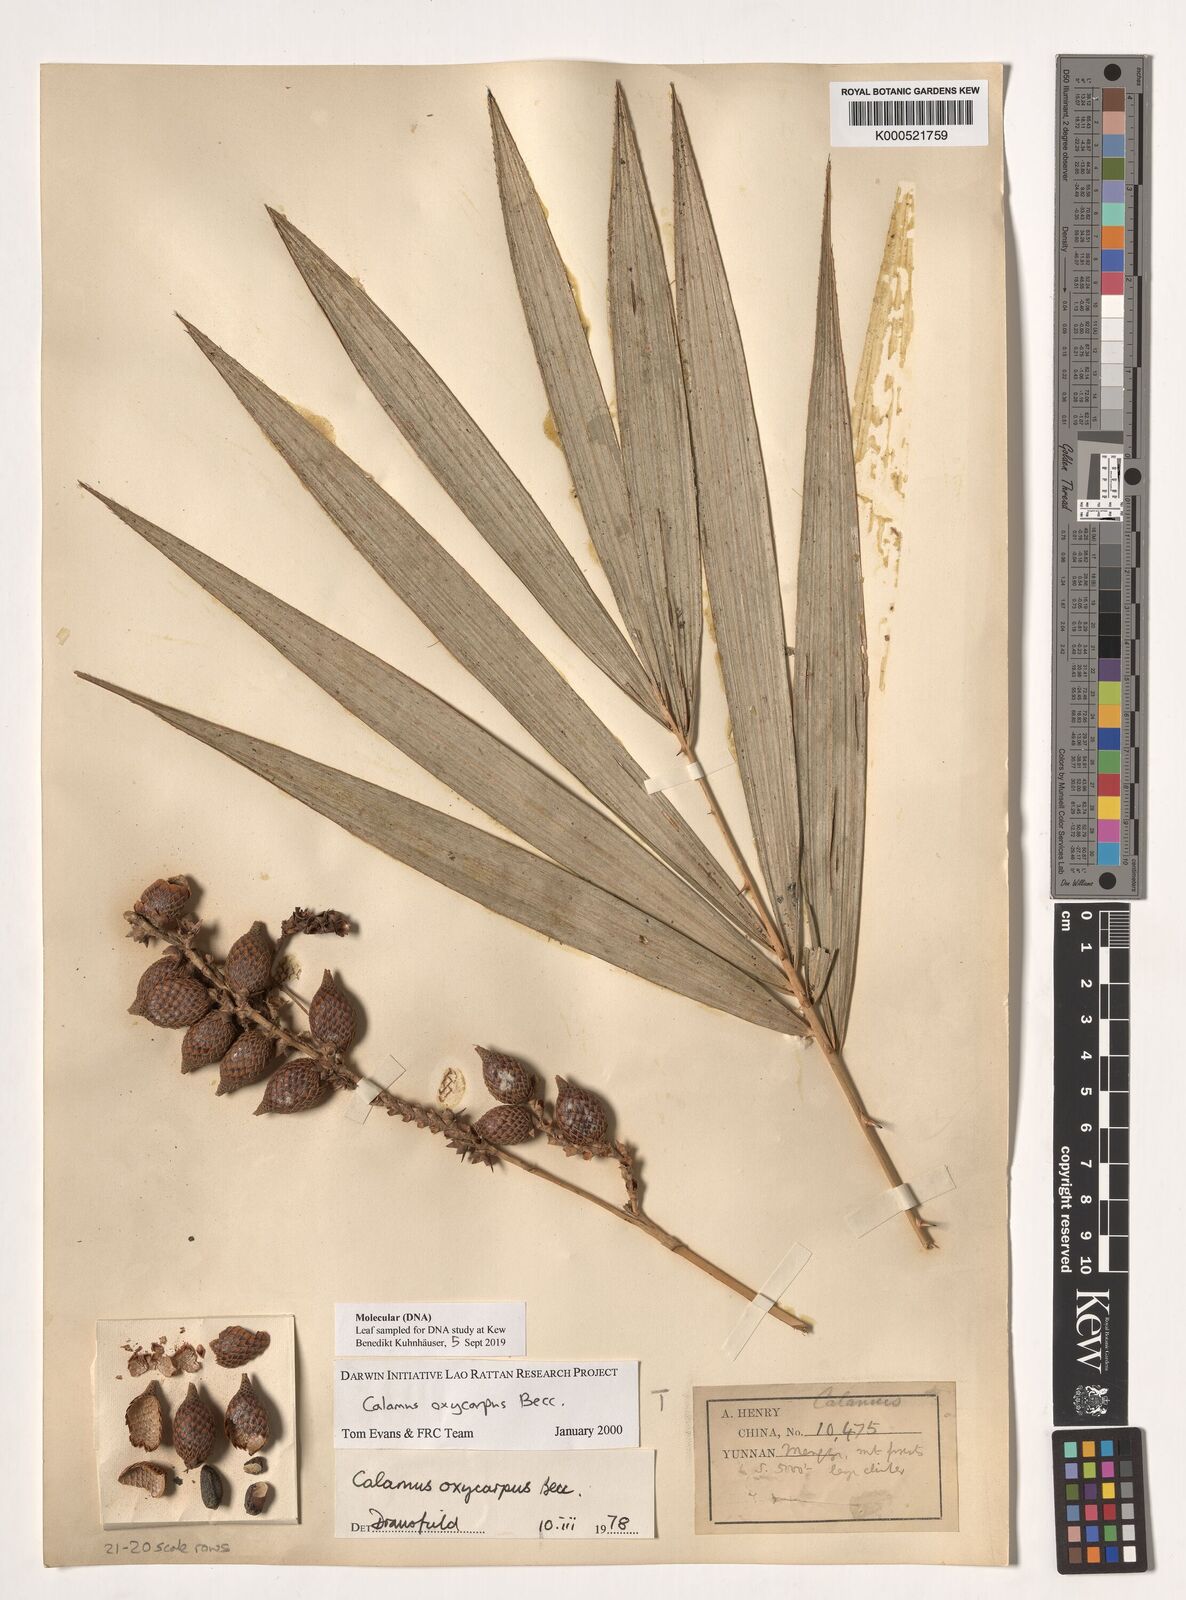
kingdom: Plantae
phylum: Tracheophyta
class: Liliopsida
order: Arecales
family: Arecaceae
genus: Calamus
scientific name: Calamus oxycarpus
